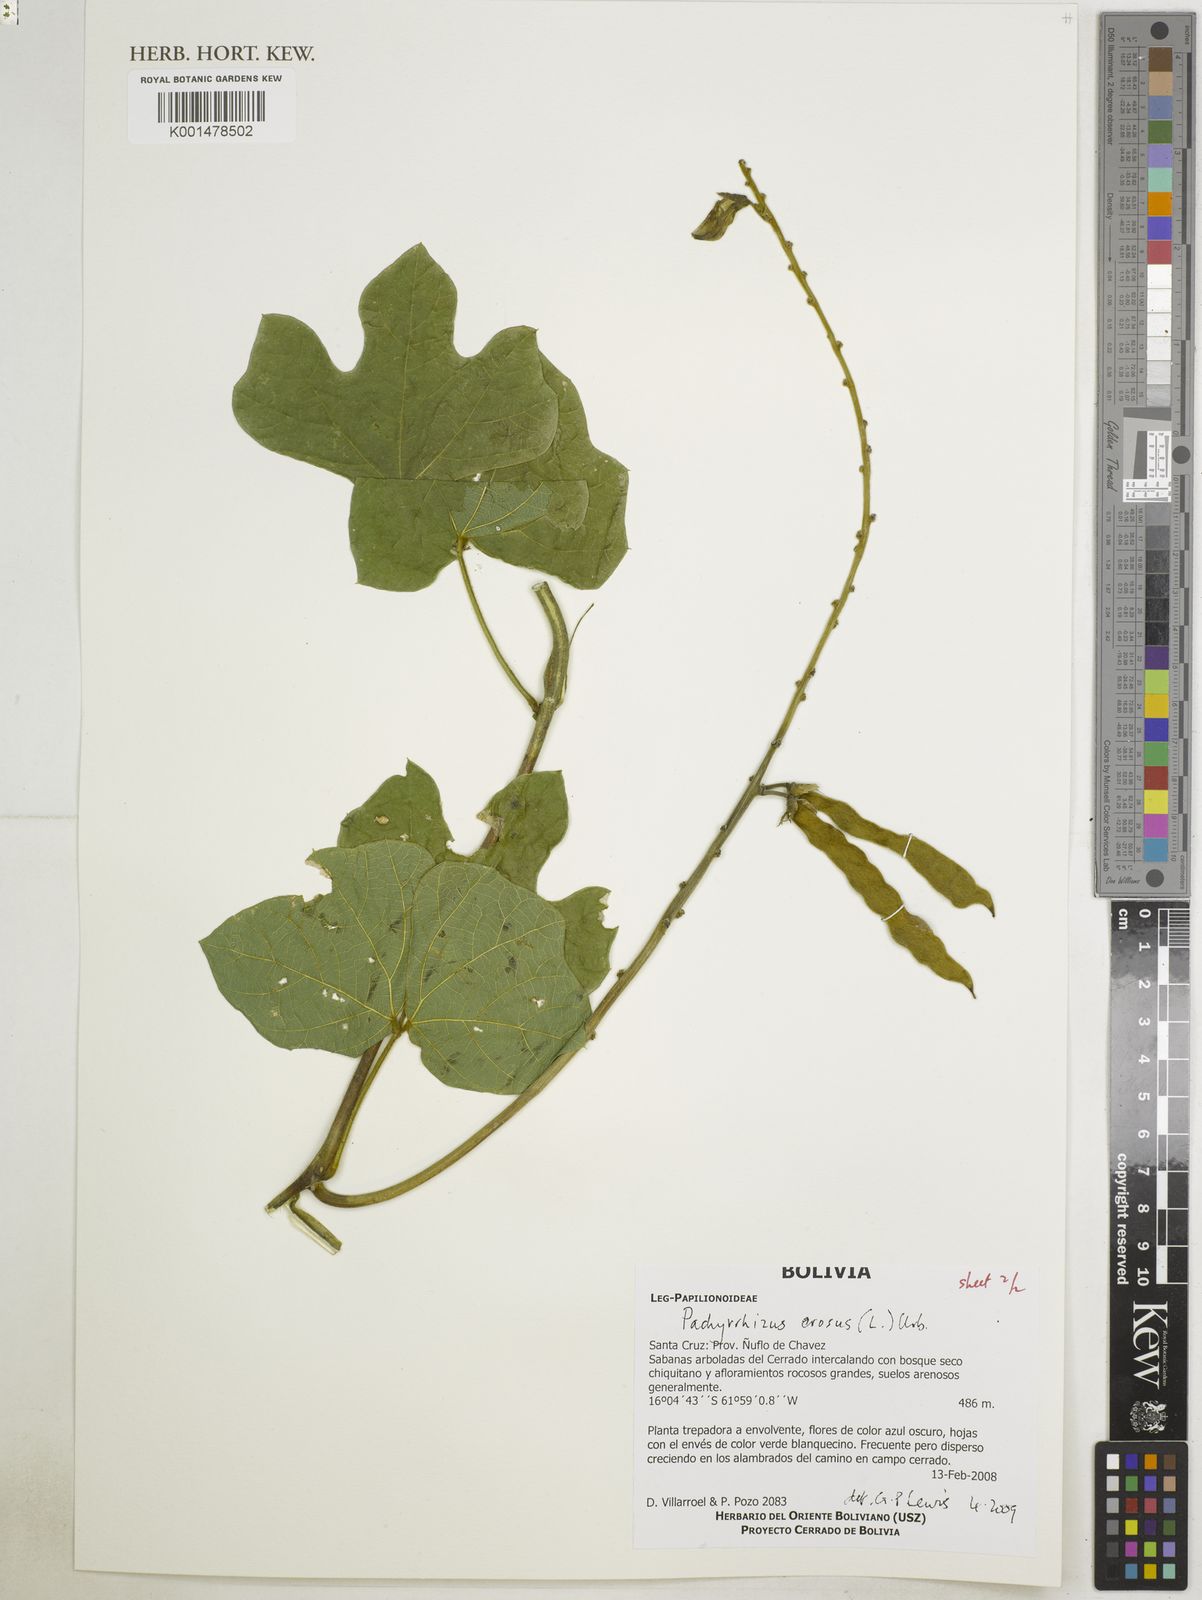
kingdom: Plantae
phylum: Tracheophyta
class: Magnoliopsida
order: Fabales
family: Fabaceae
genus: Pachyrhizus
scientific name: Pachyrhizus erosus
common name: Yam bean
